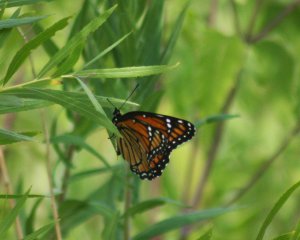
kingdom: Animalia
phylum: Arthropoda
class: Insecta
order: Lepidoptera
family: Nymphalidae
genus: Limenitis
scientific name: Limenitis archippus
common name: Viceroy
